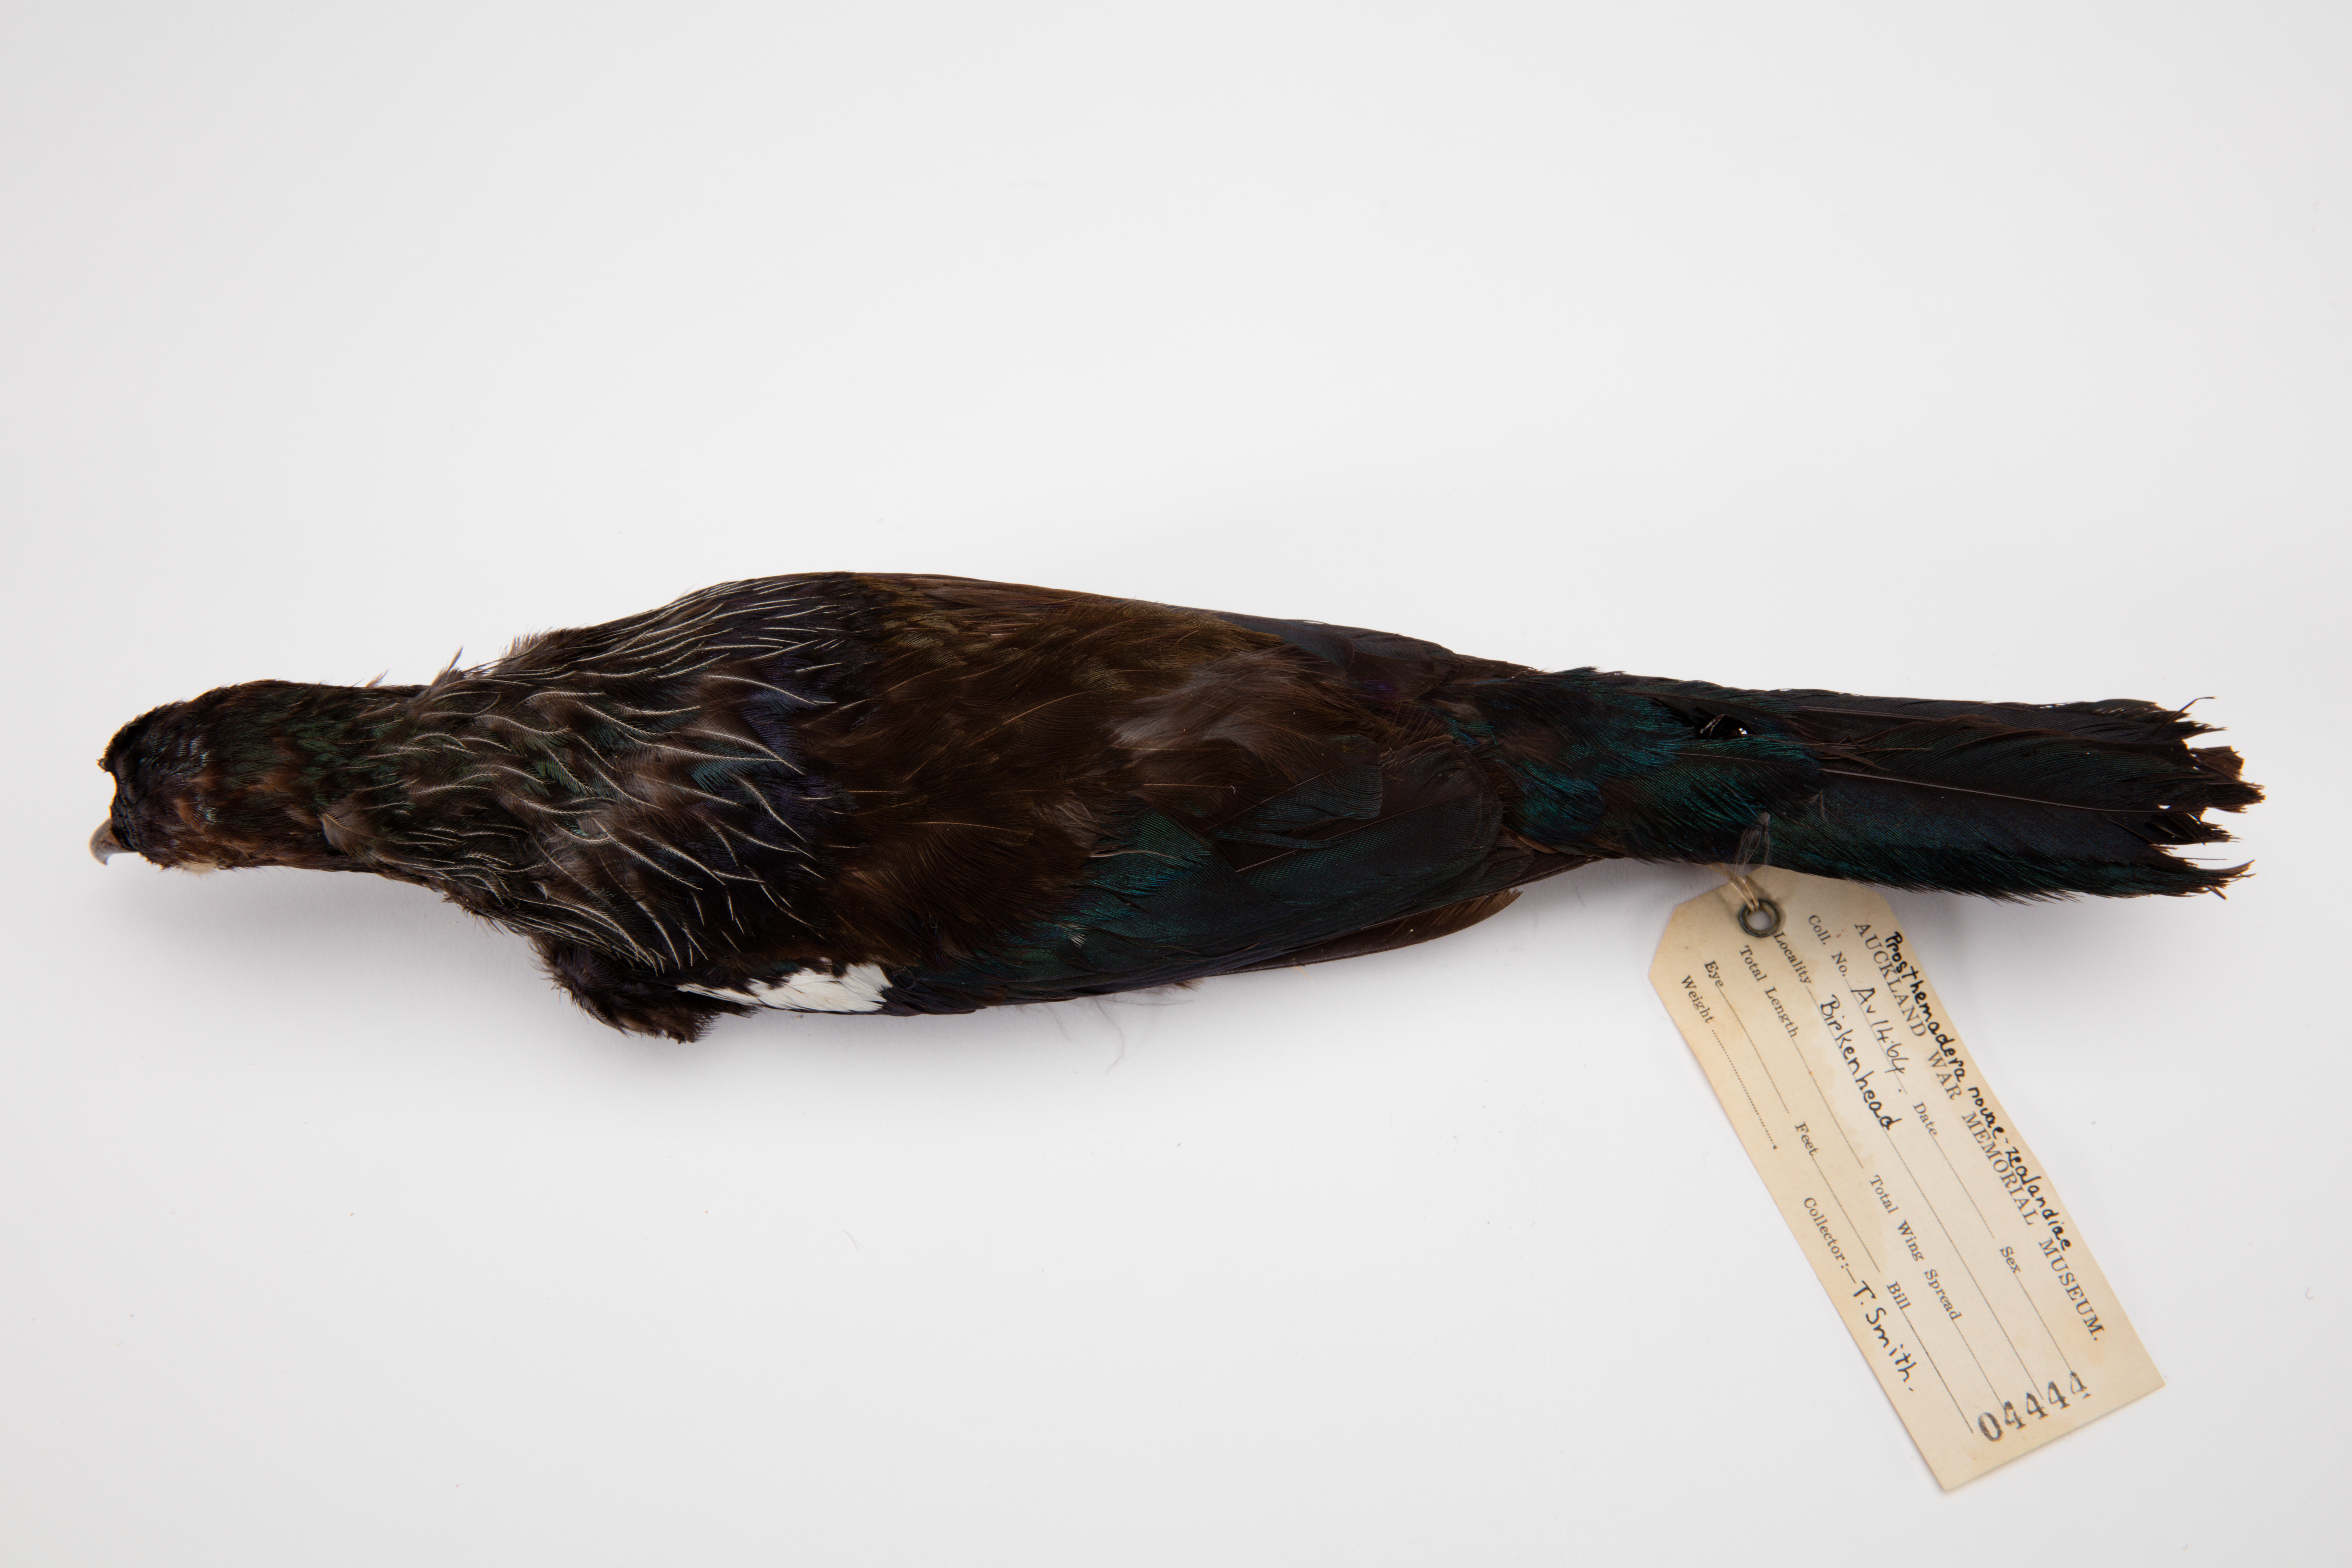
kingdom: Animalia
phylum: Chordata
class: Aves
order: Passeriformes
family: Meliphagidae
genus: Prosthemadera
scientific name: Prosthemadera novaeseelandiae
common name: Tui
